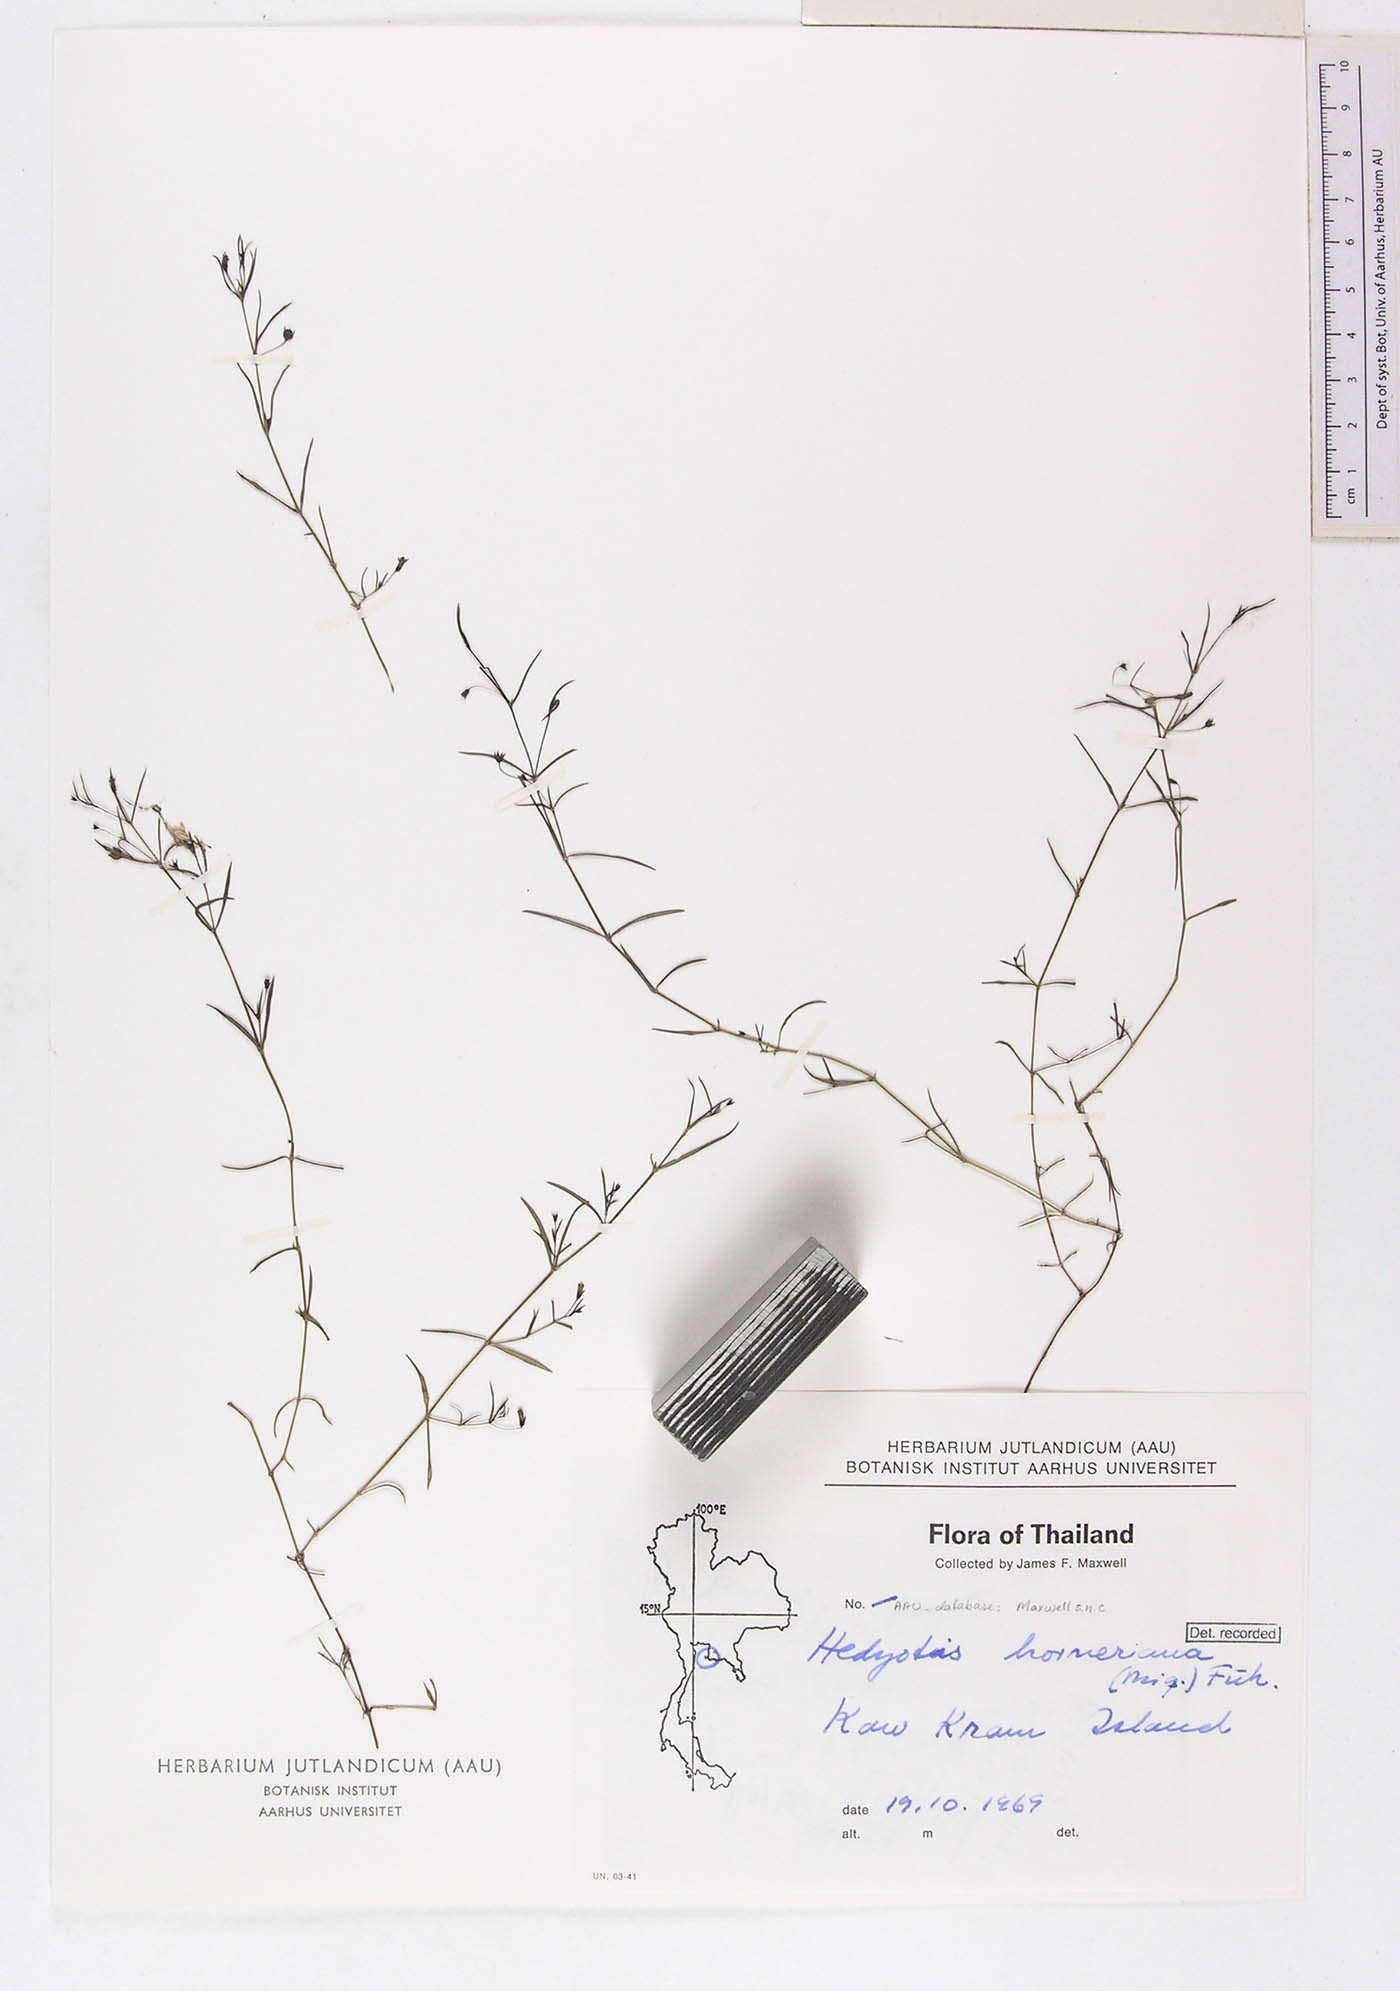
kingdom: Plantae
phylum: Tracheophyta
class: Magnoliopsida
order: Gentianales
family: Rubiaceae
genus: Exallage
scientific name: Exallage barbata
